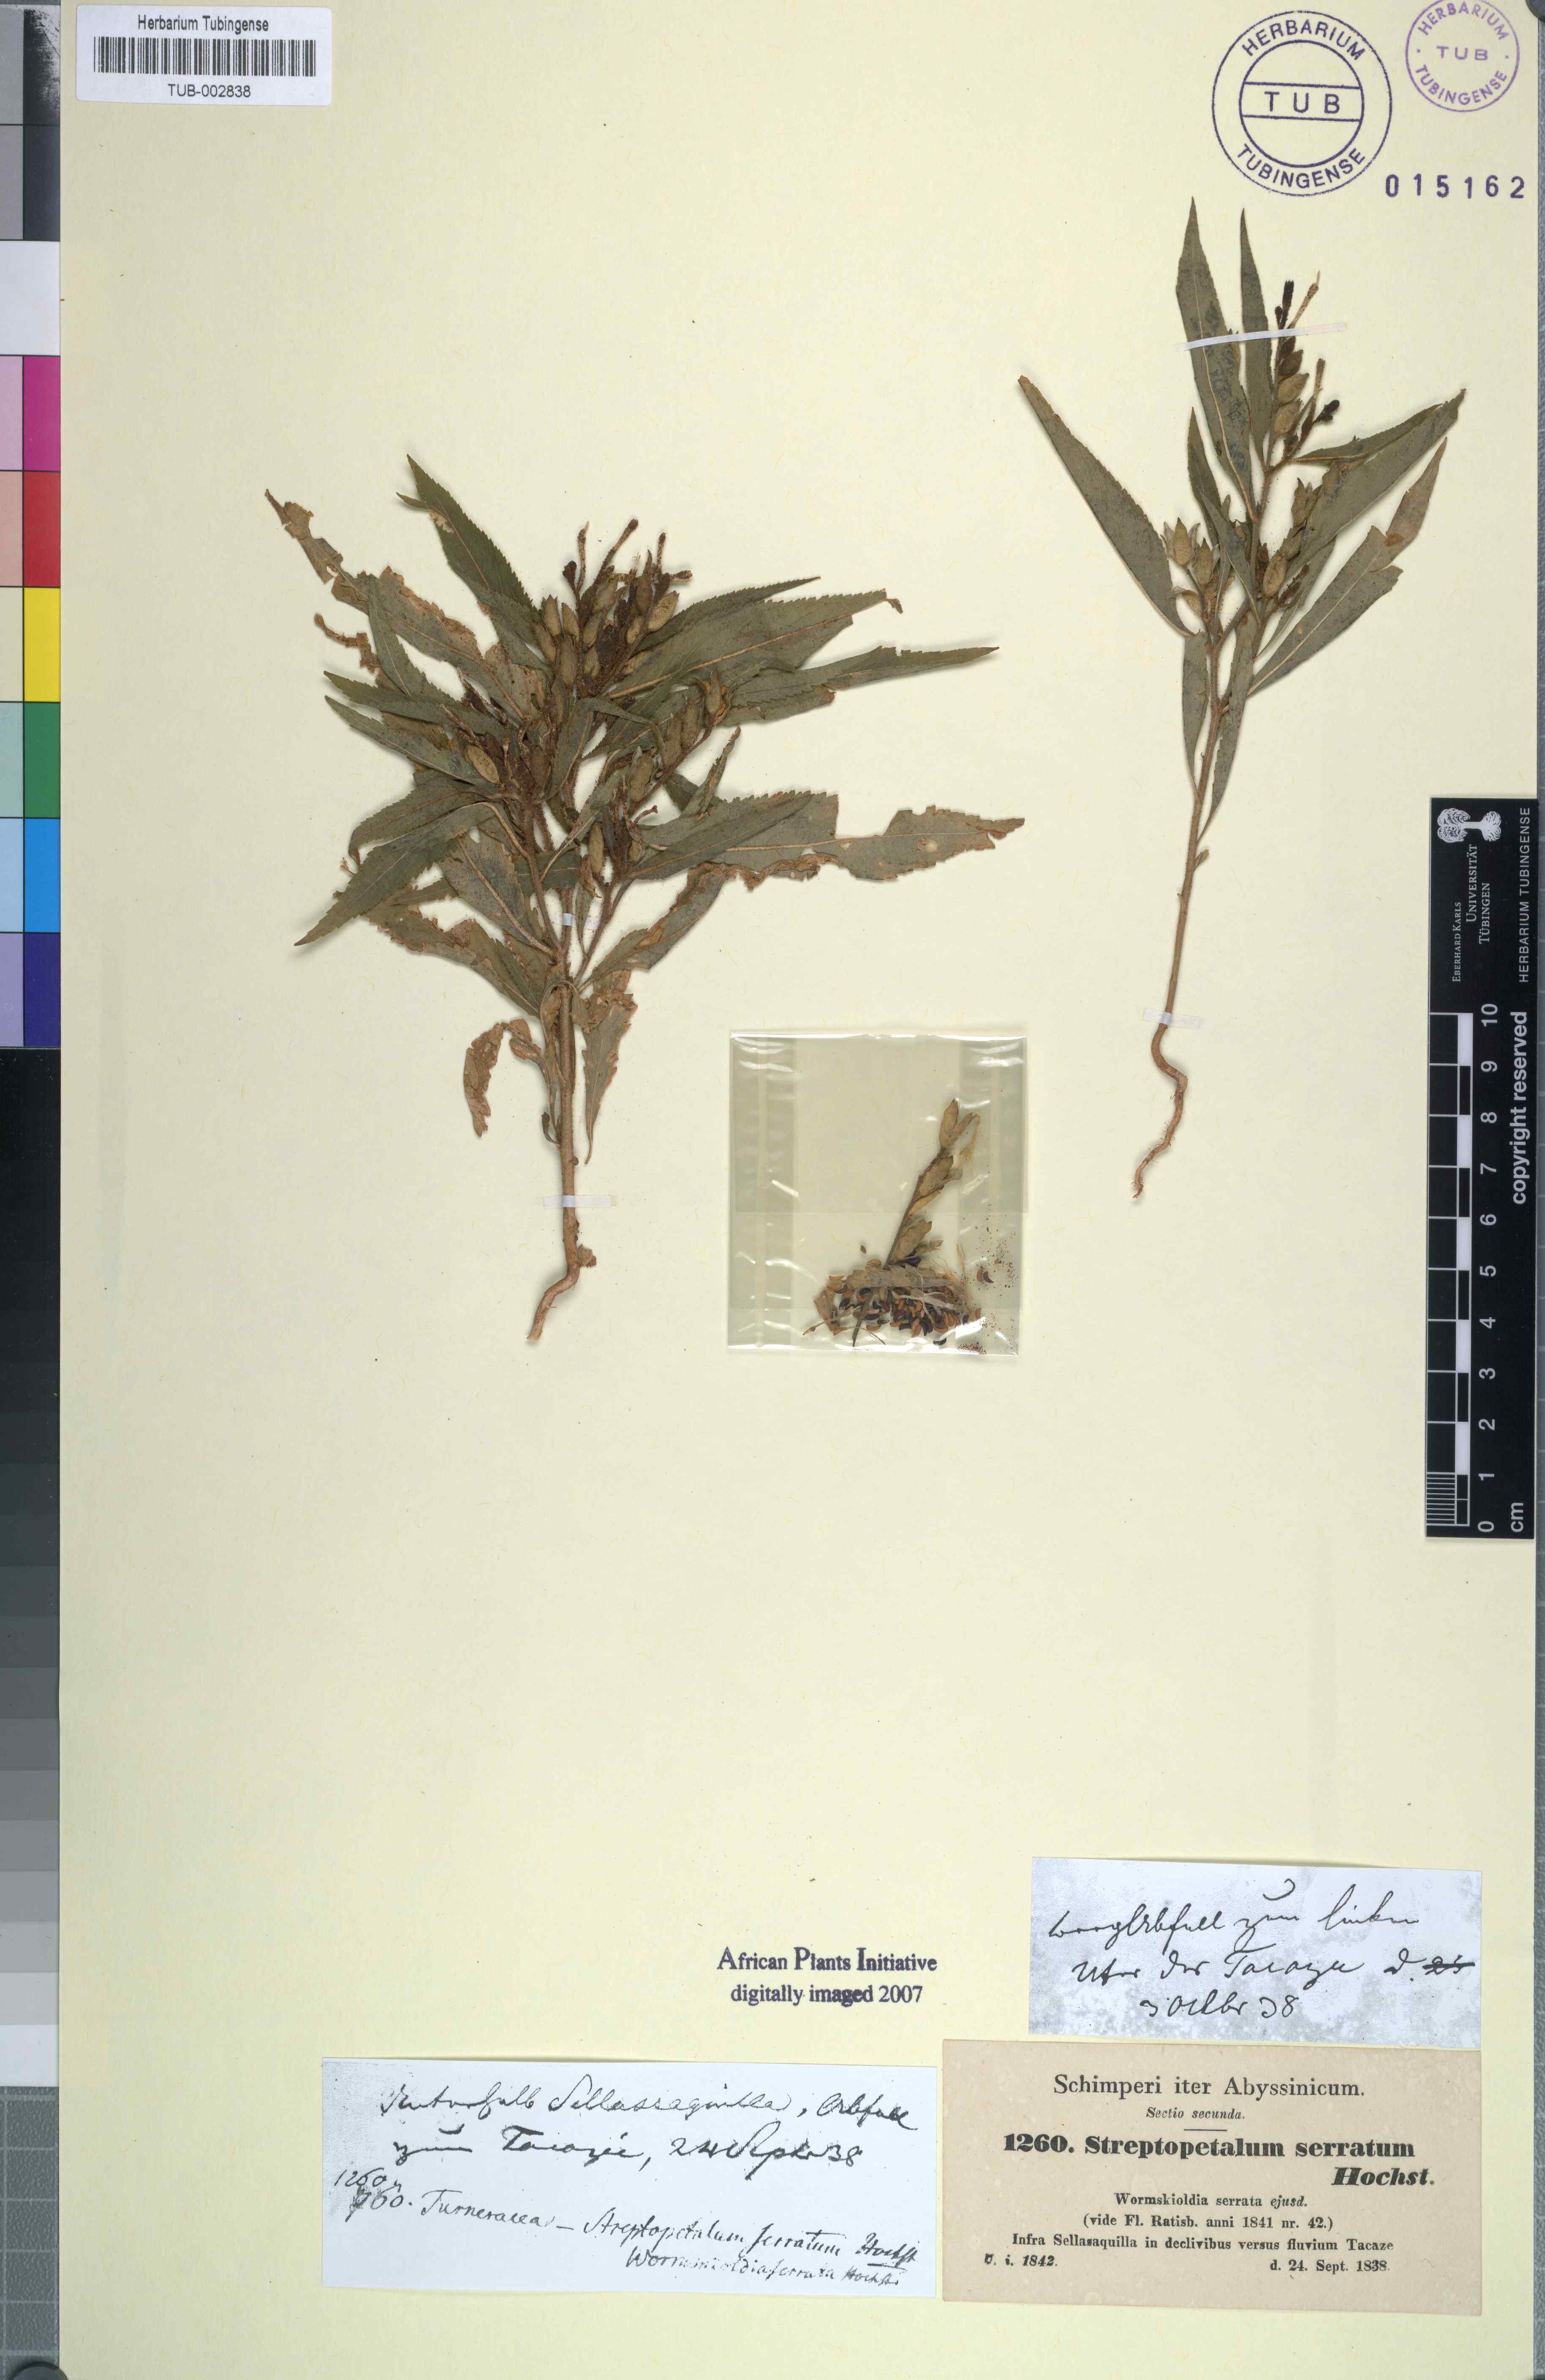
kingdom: Plantae
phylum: Tracheophyta
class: Magnoliopsida
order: Malpighiales
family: Turneraceae
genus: Streptopetalum
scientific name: Streptopetalum serratum
